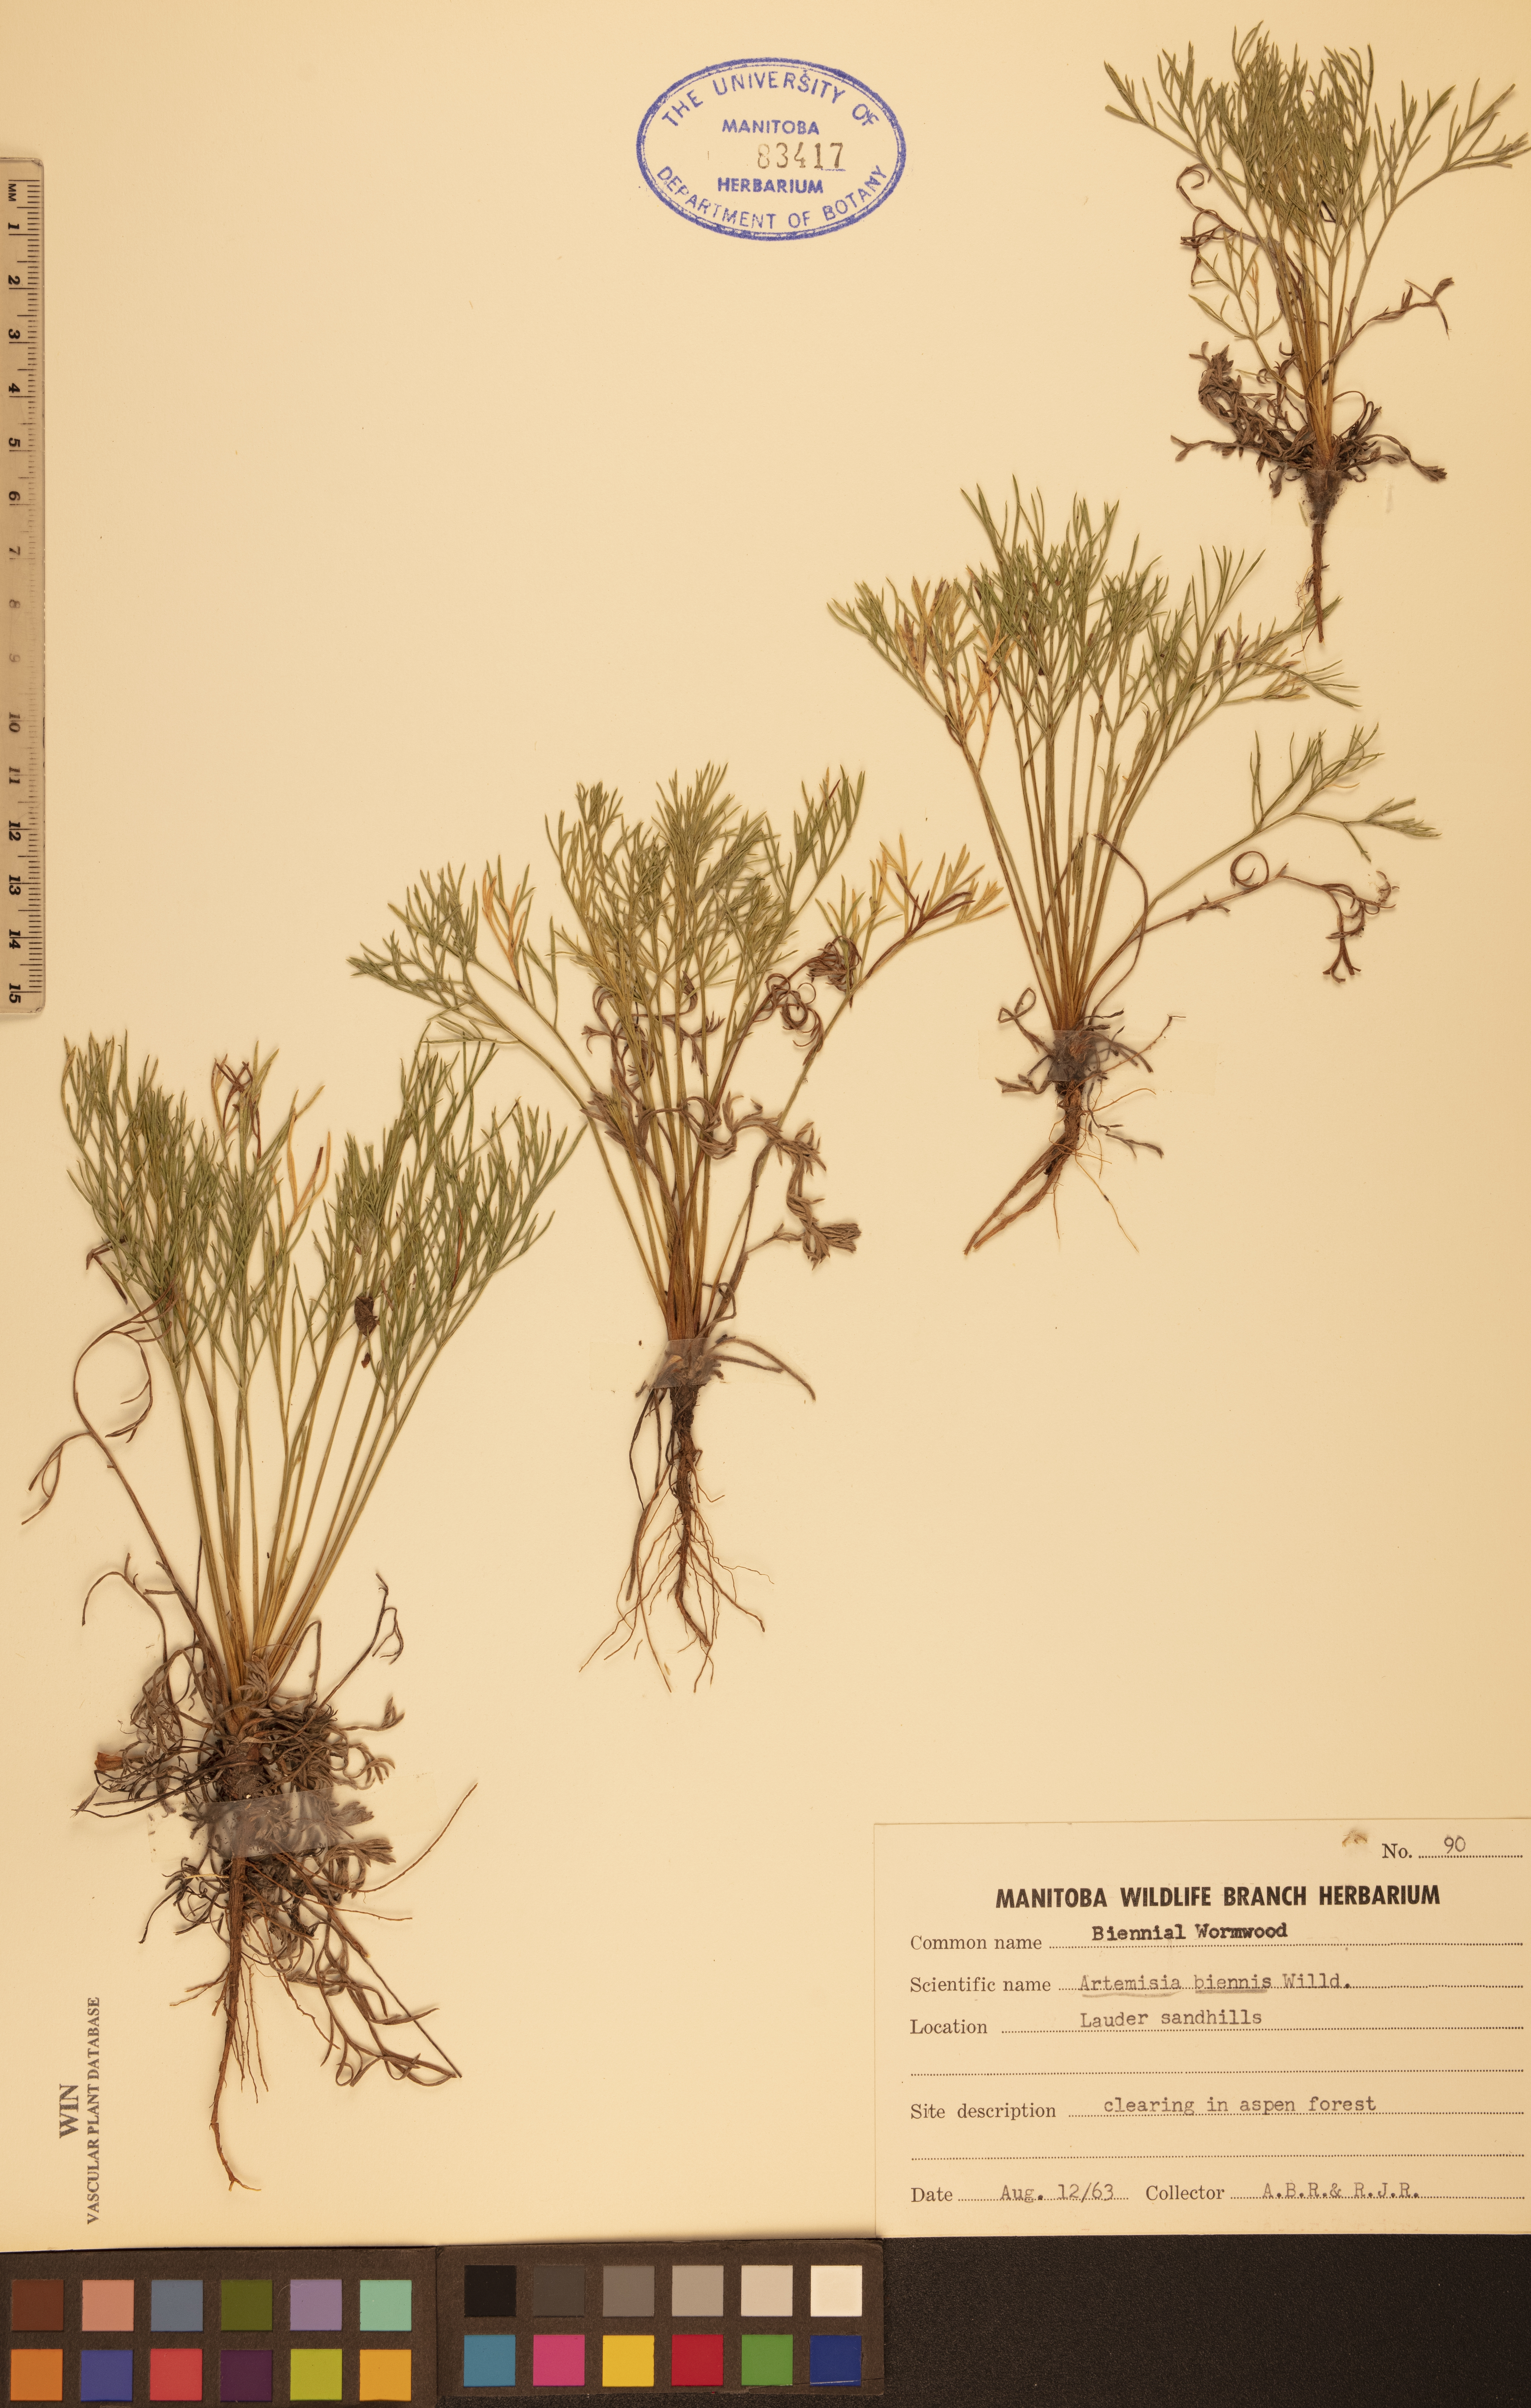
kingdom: Plantae
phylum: Tracheophyta
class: Magnoliopsida
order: Asterales
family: Asteraceae
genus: Artemisia
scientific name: Artemisia biennis
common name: Biennial wormwood
